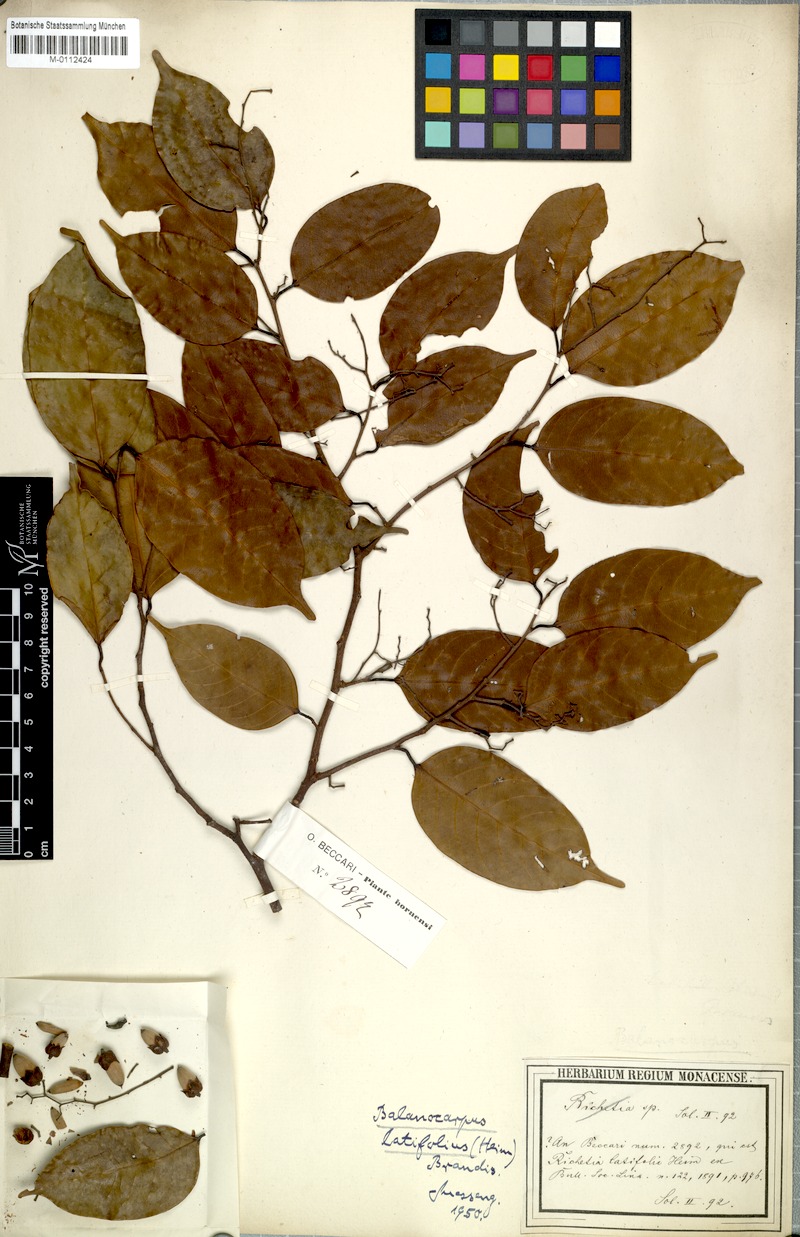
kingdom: Plantae
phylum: Tracheophyta
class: Magnoliopsida
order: Malvales
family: Dipterocarpaceae
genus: Shorea
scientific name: Shorea multiflora
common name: Yellow meranti
